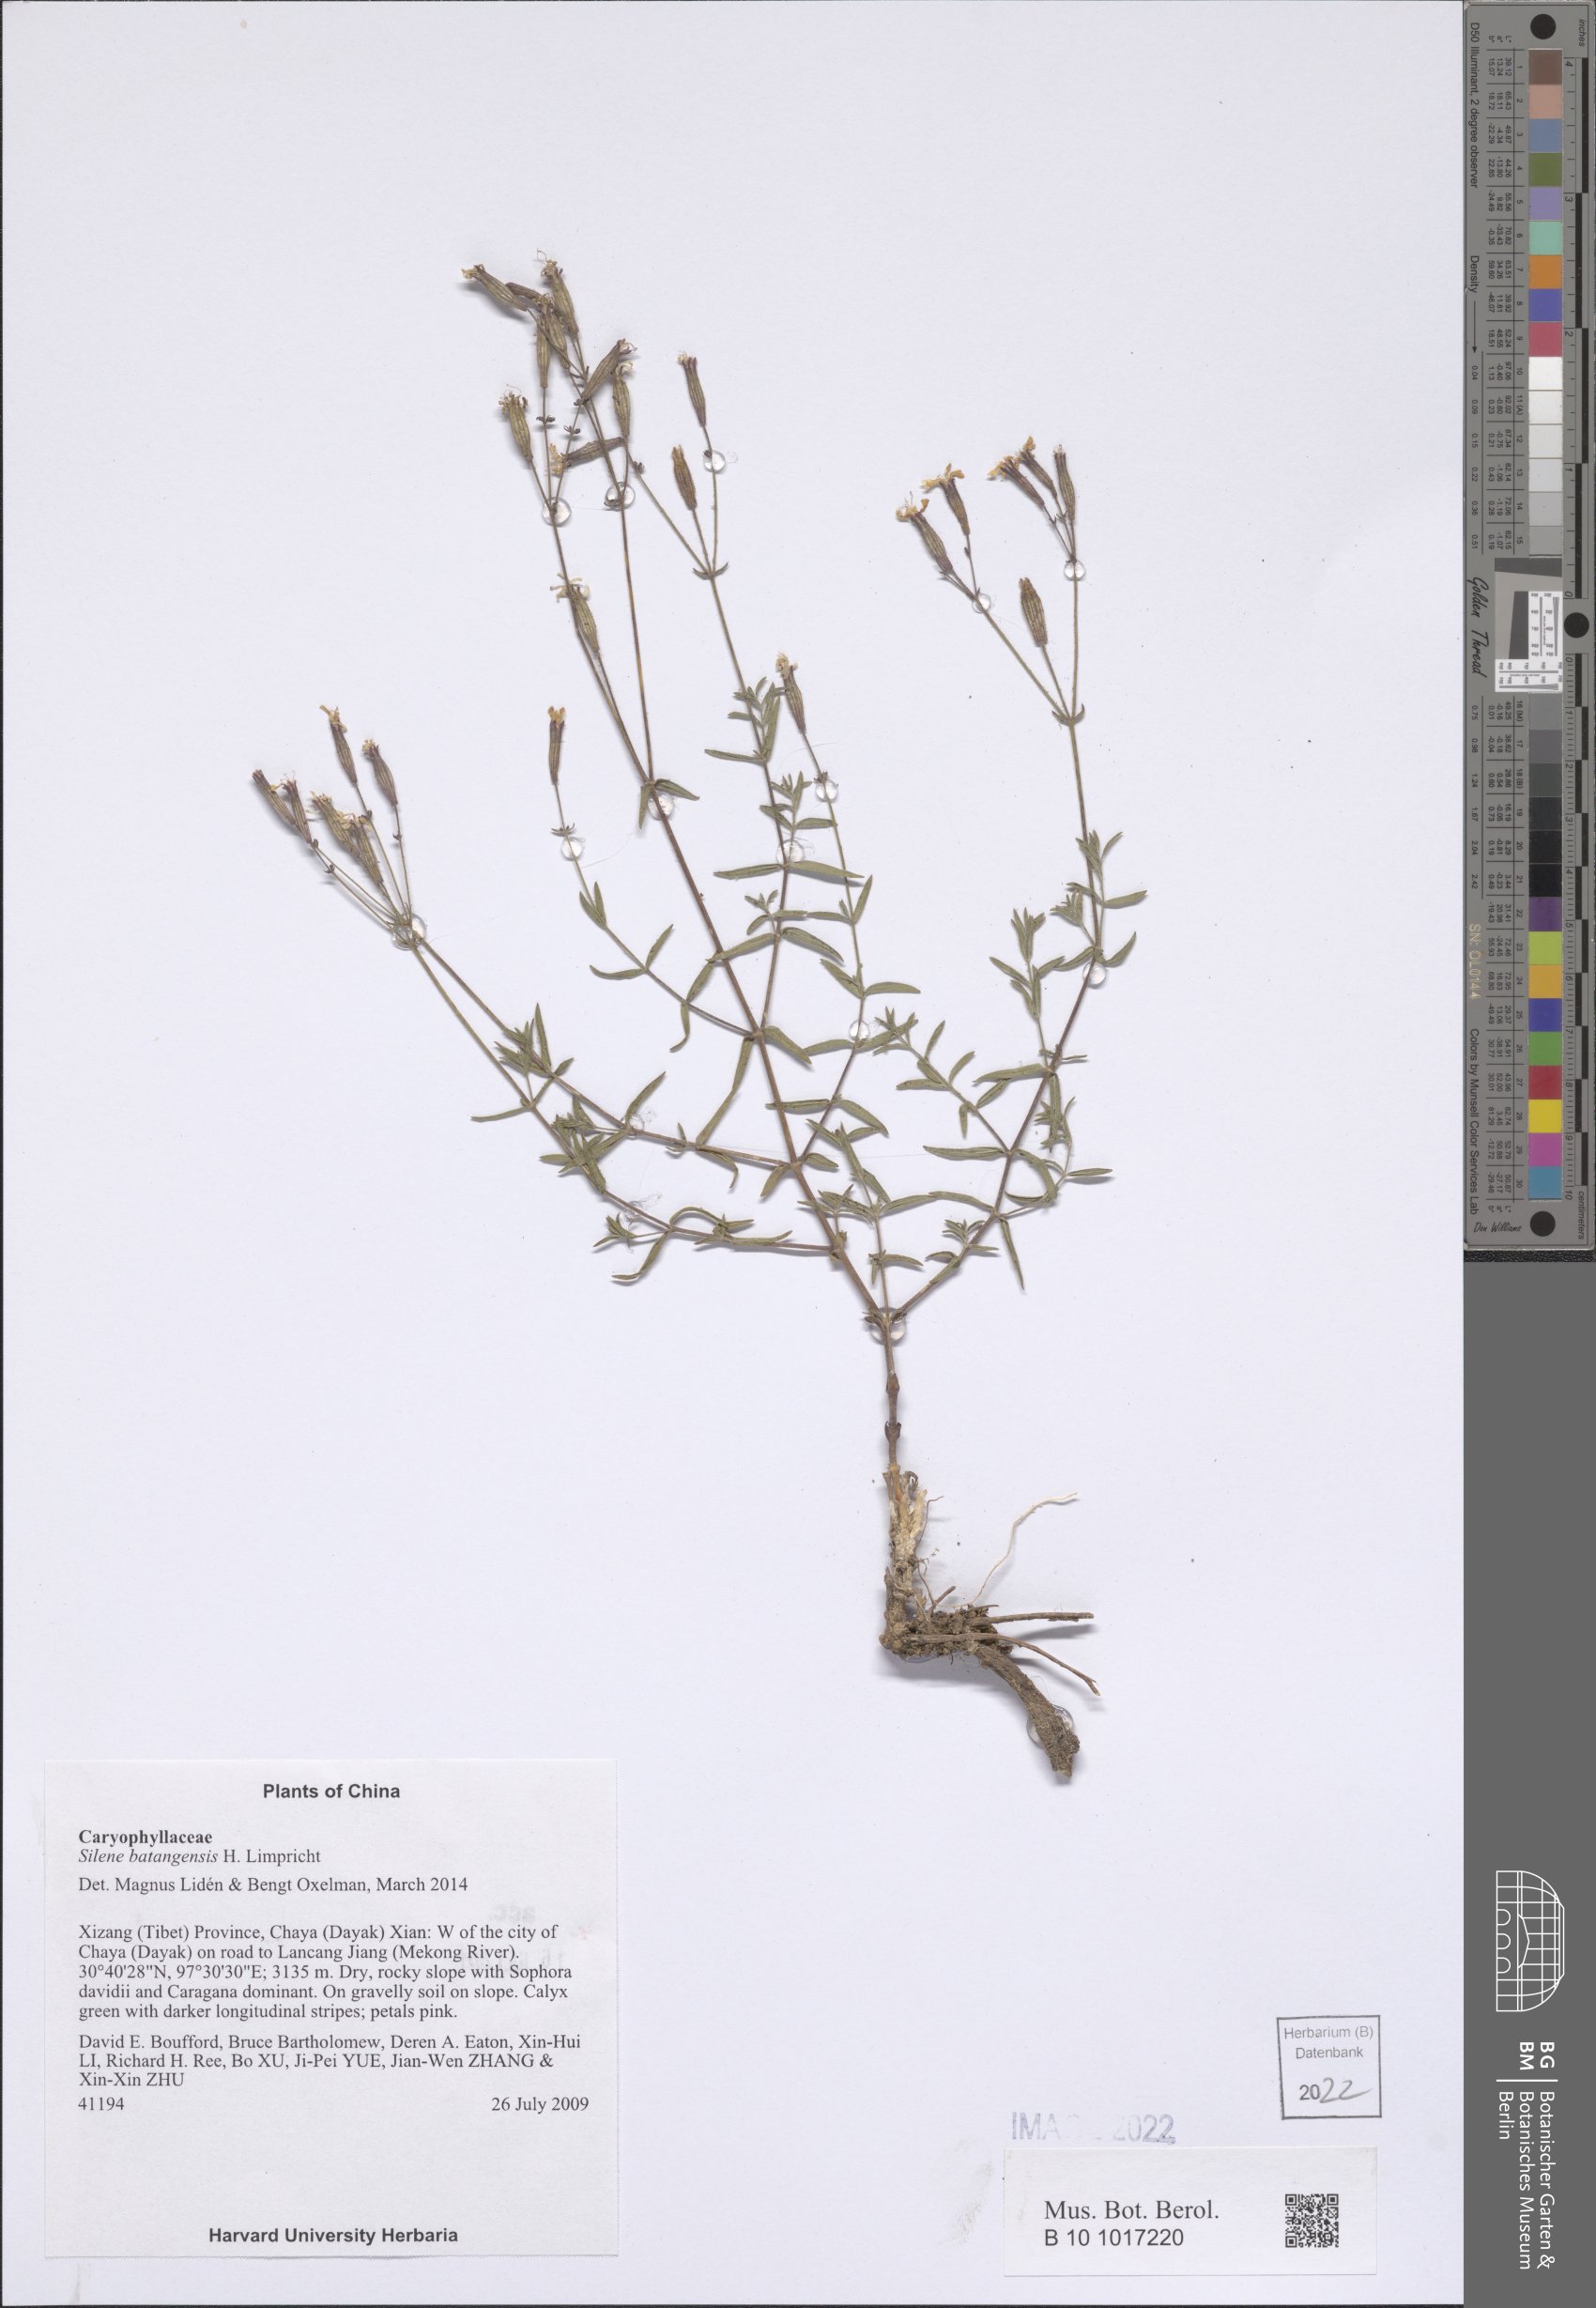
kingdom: Plantae
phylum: Tracheophyta
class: Magnoliopsida
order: Caryophyllales
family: Caryophyllaceae
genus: Silene
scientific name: Silene batangensis
